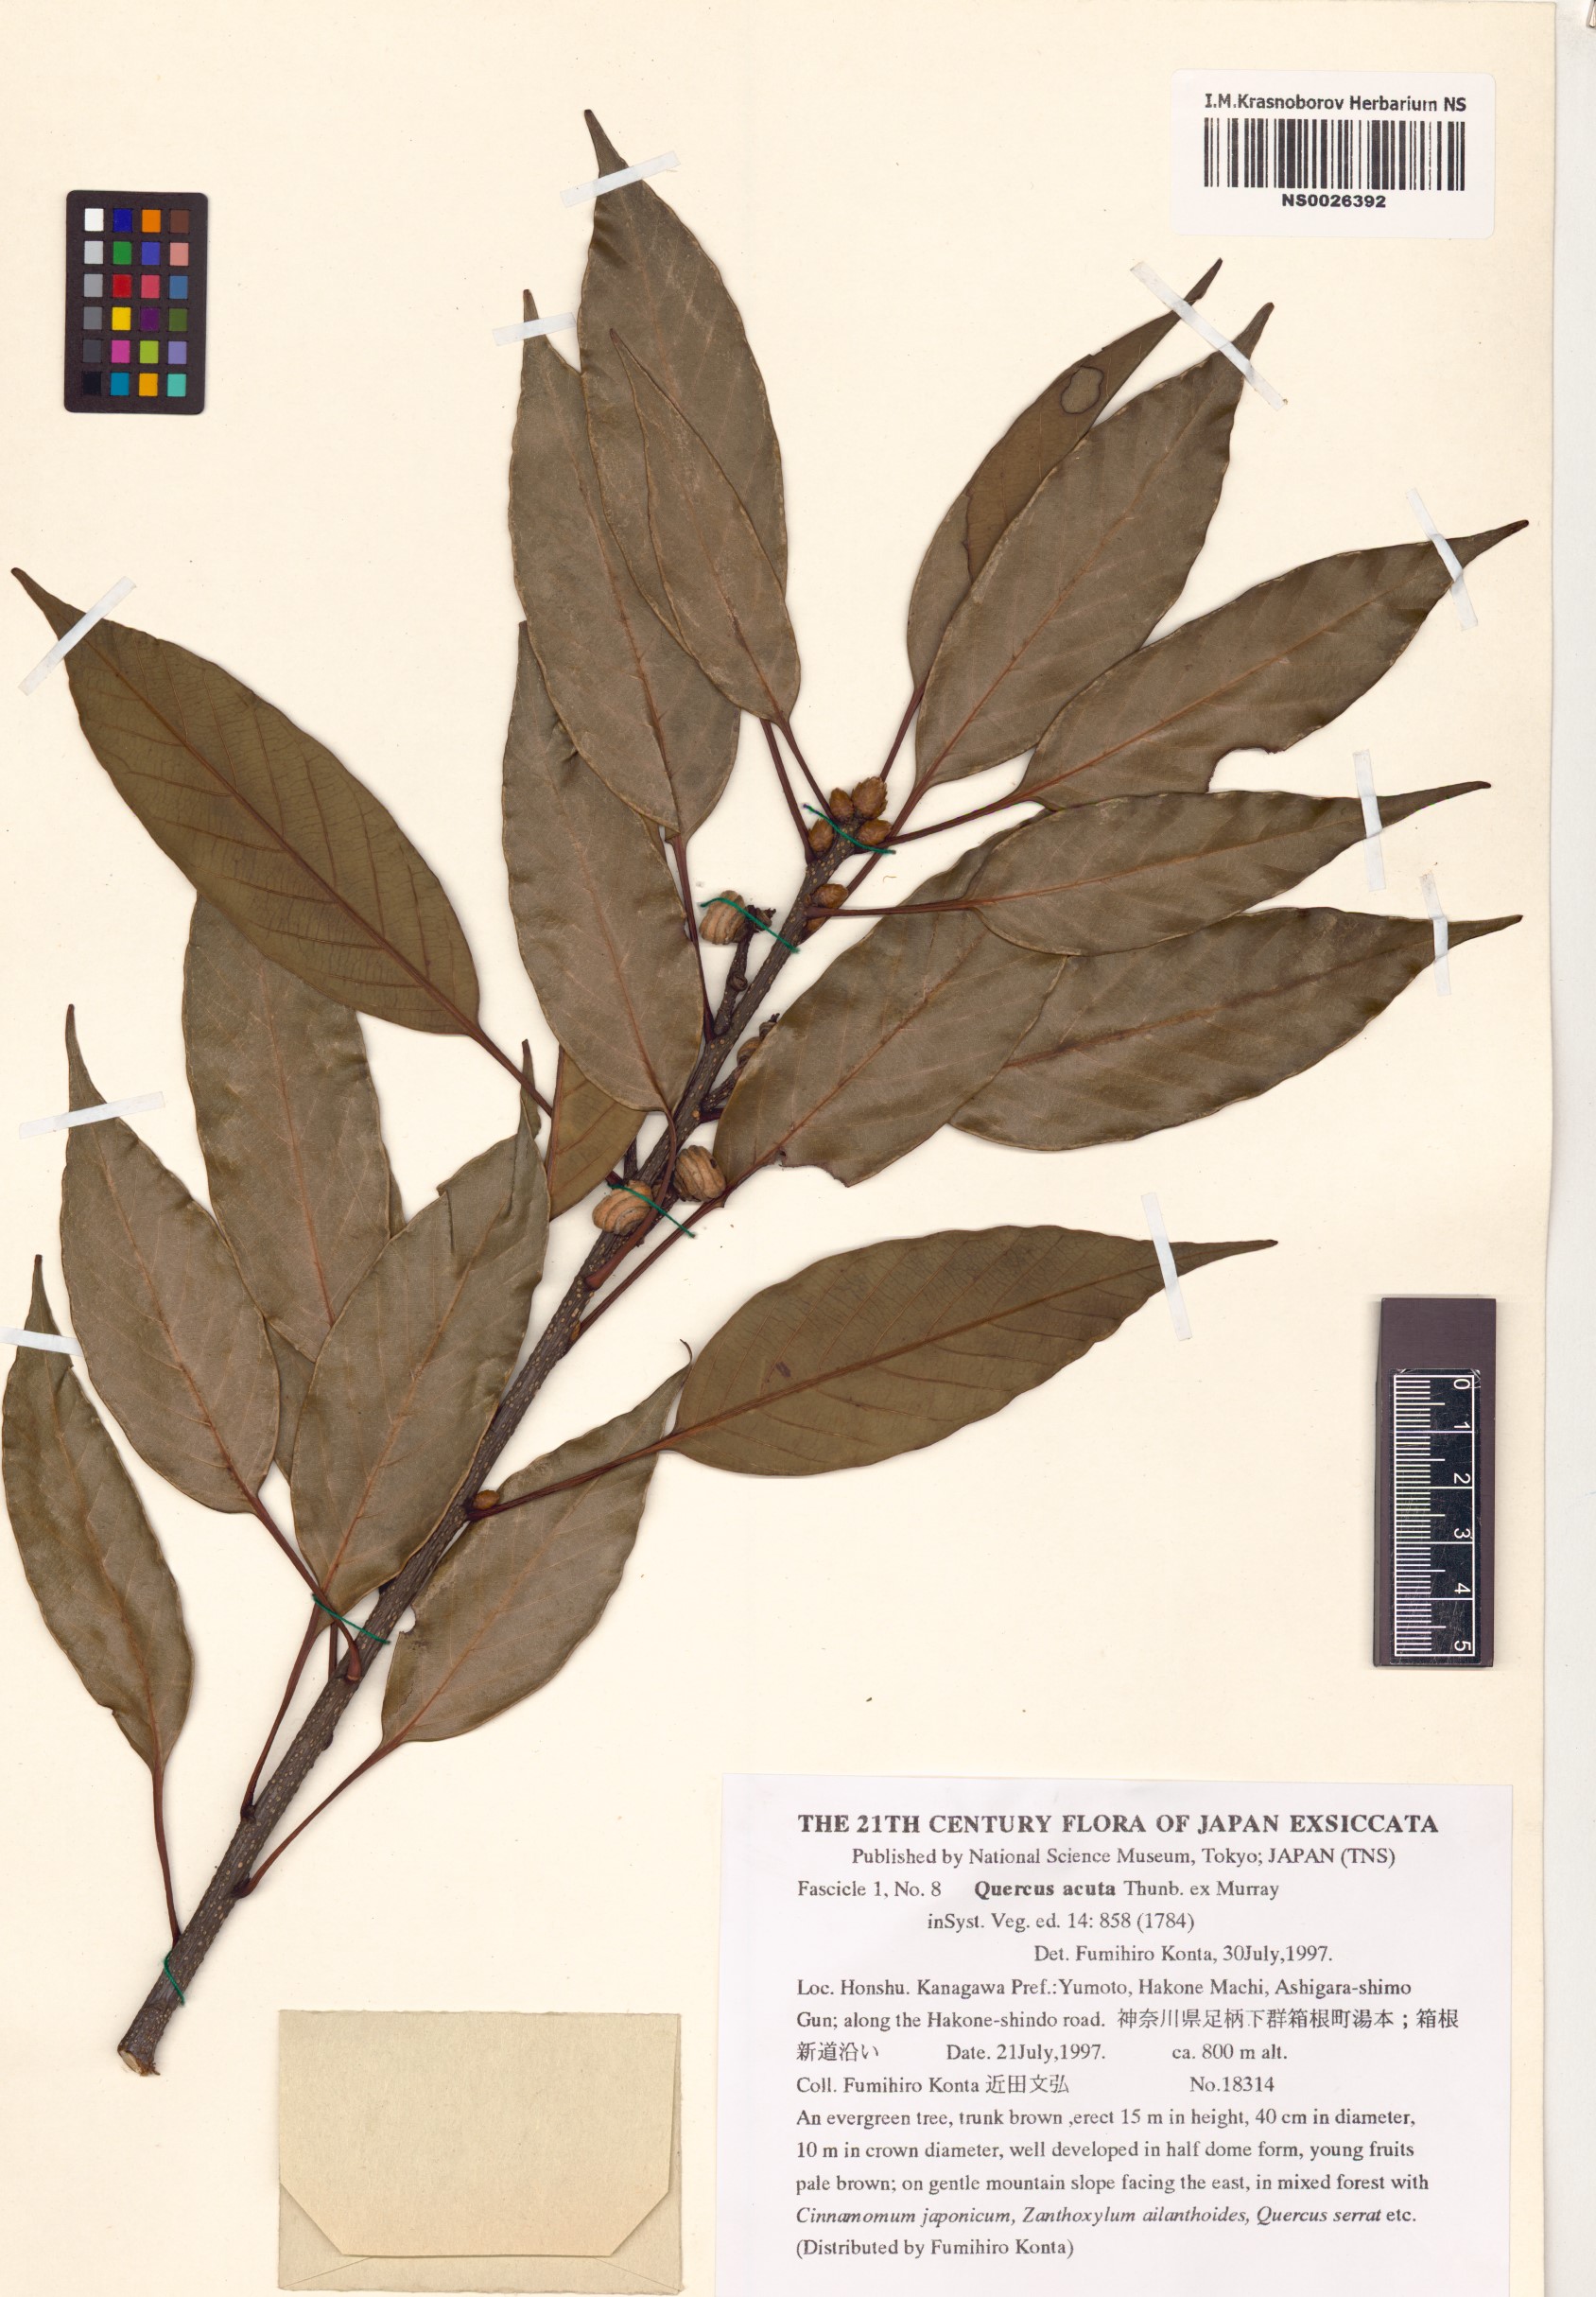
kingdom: Plantae
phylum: Tracheophyta
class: Magnoliopsida
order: Fagales
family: Fagaceae
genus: Quercus
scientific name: Quercus acuta
